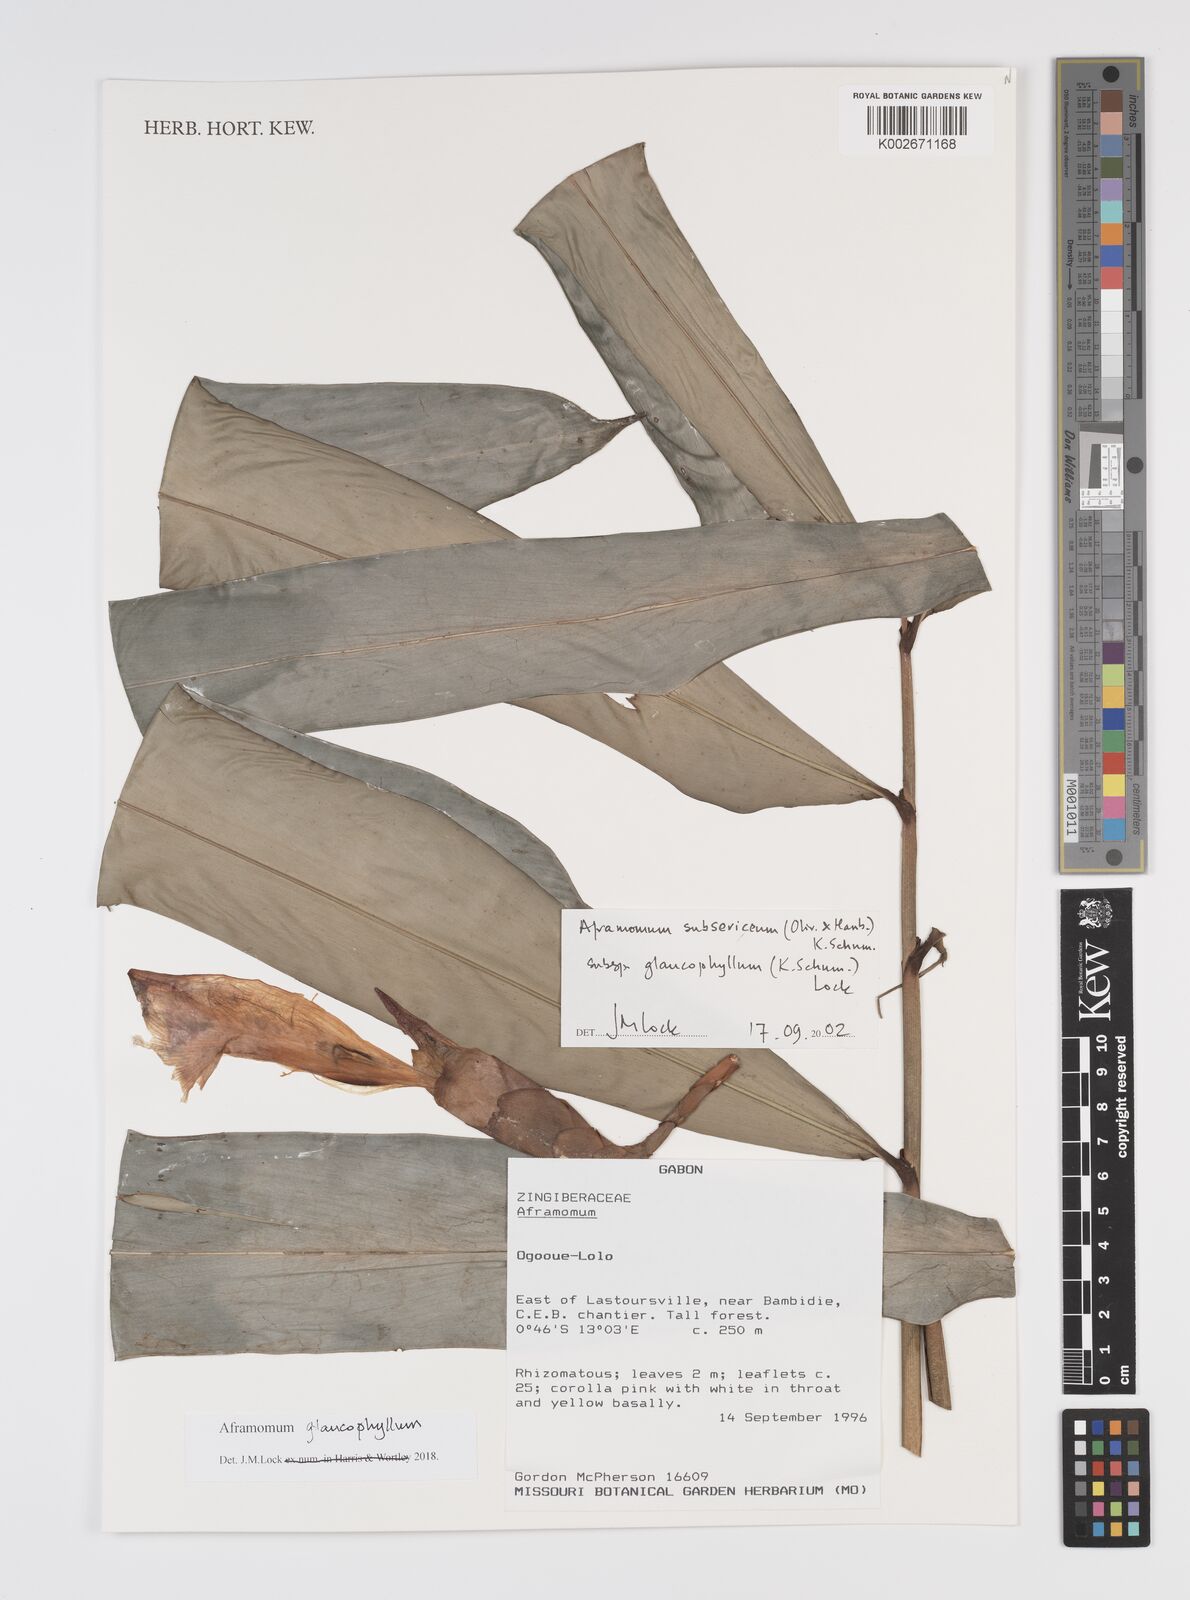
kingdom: Plantae
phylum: Tracheophyta
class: Liliopsida
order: Zingiberales
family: Zingiberaceae
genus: Aframomum
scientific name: Aframomum glaucophyllum
